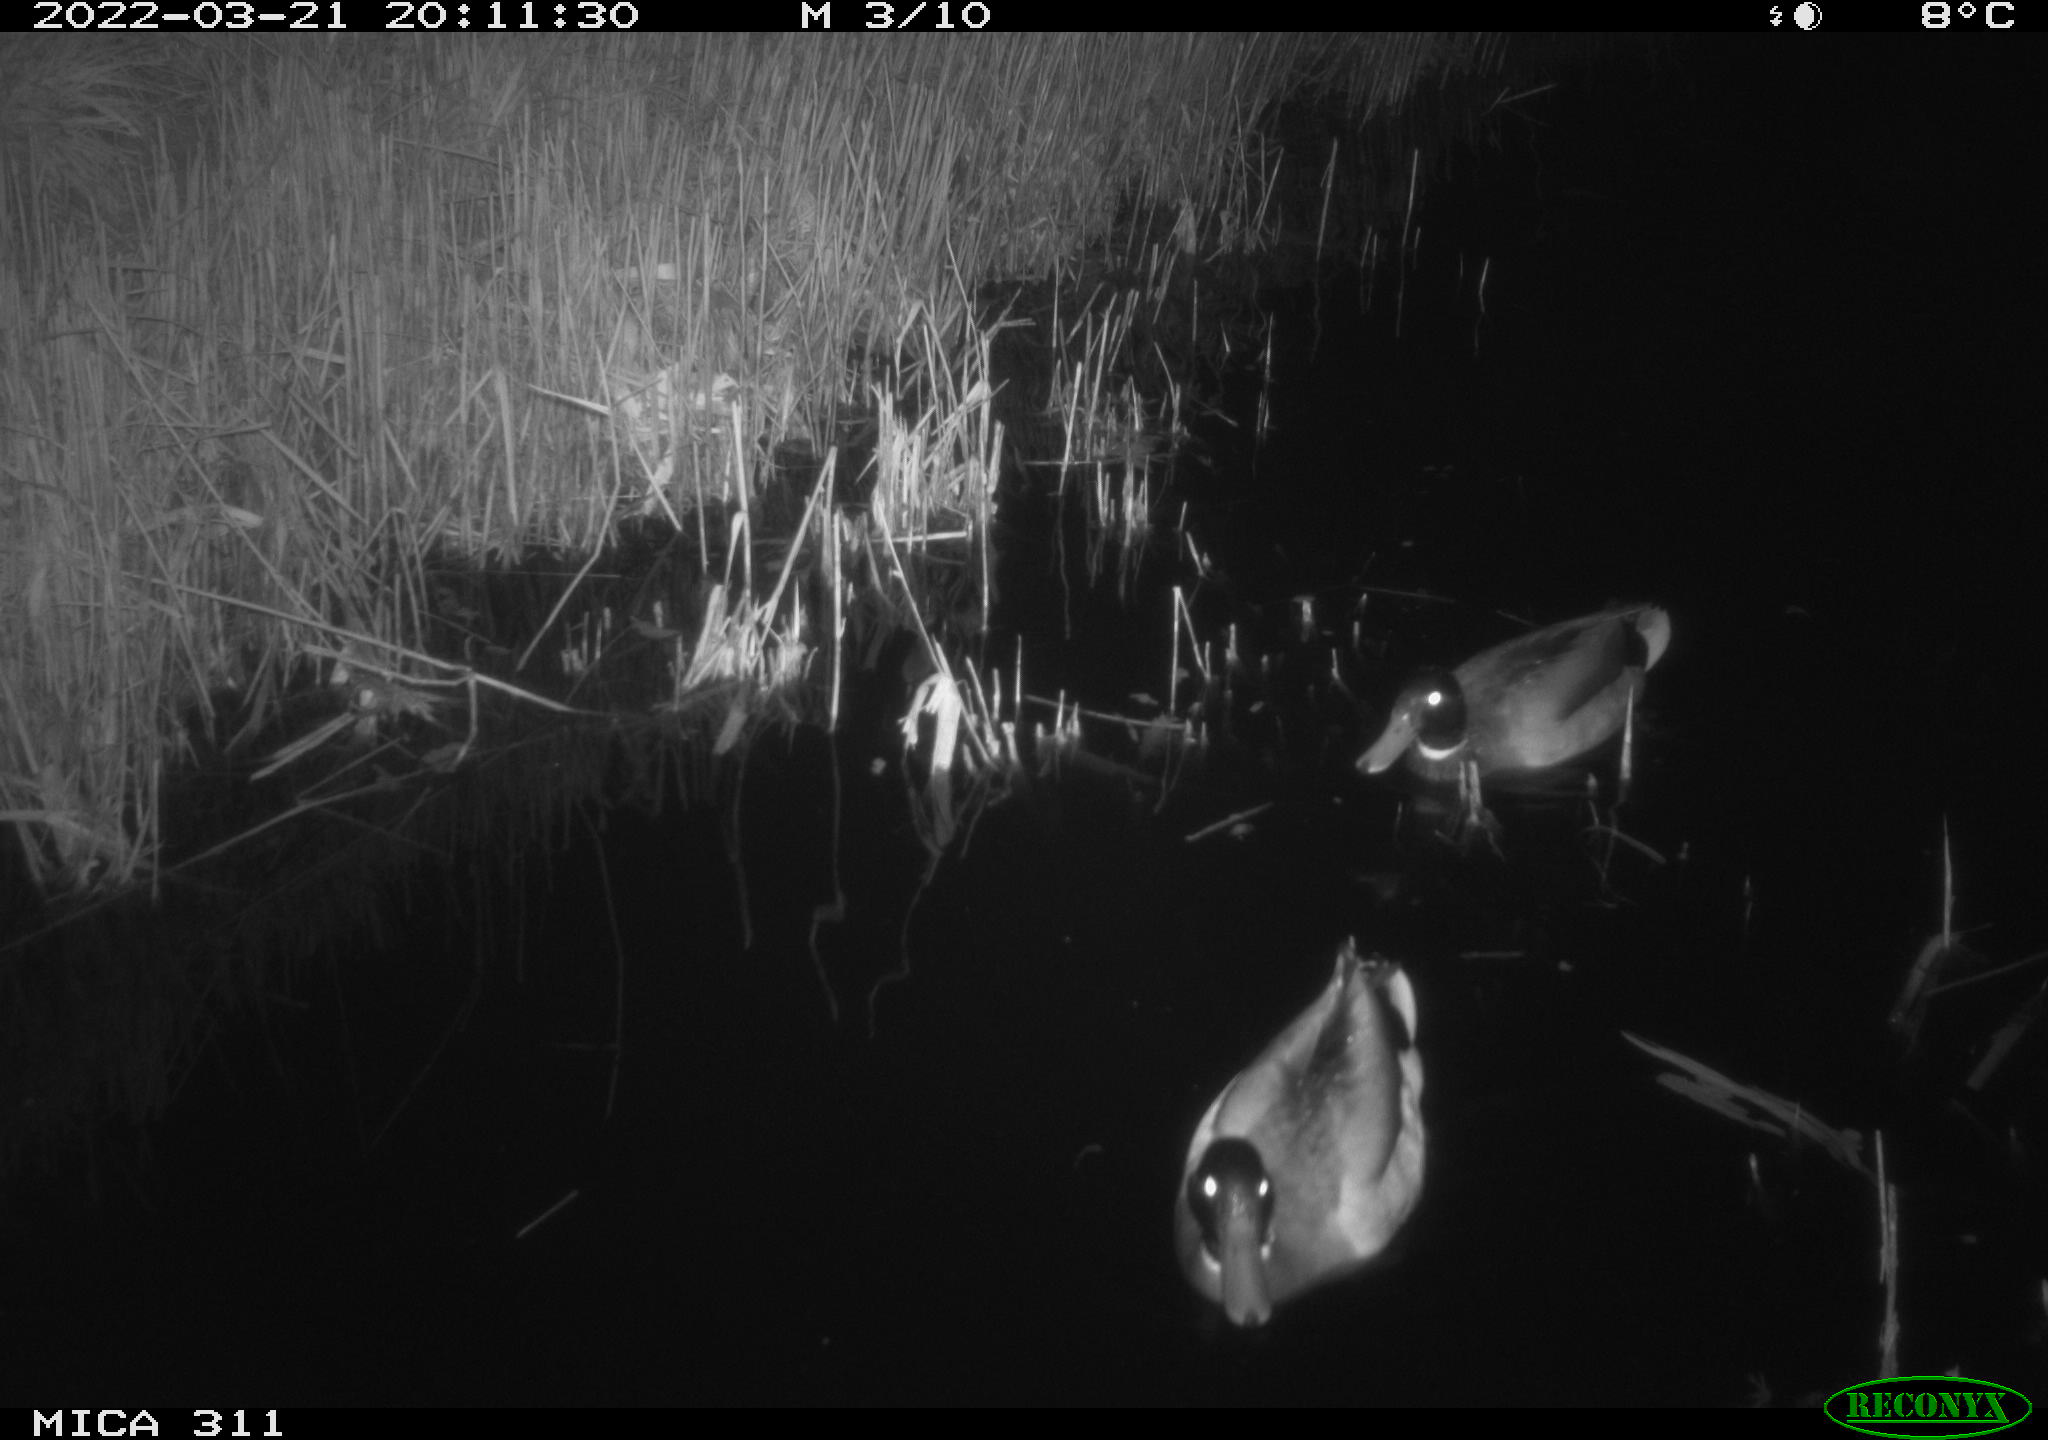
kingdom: Animalia
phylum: Chordata
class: Aves
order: Anseriformes
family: Anatidae
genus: Anas
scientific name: Anas
